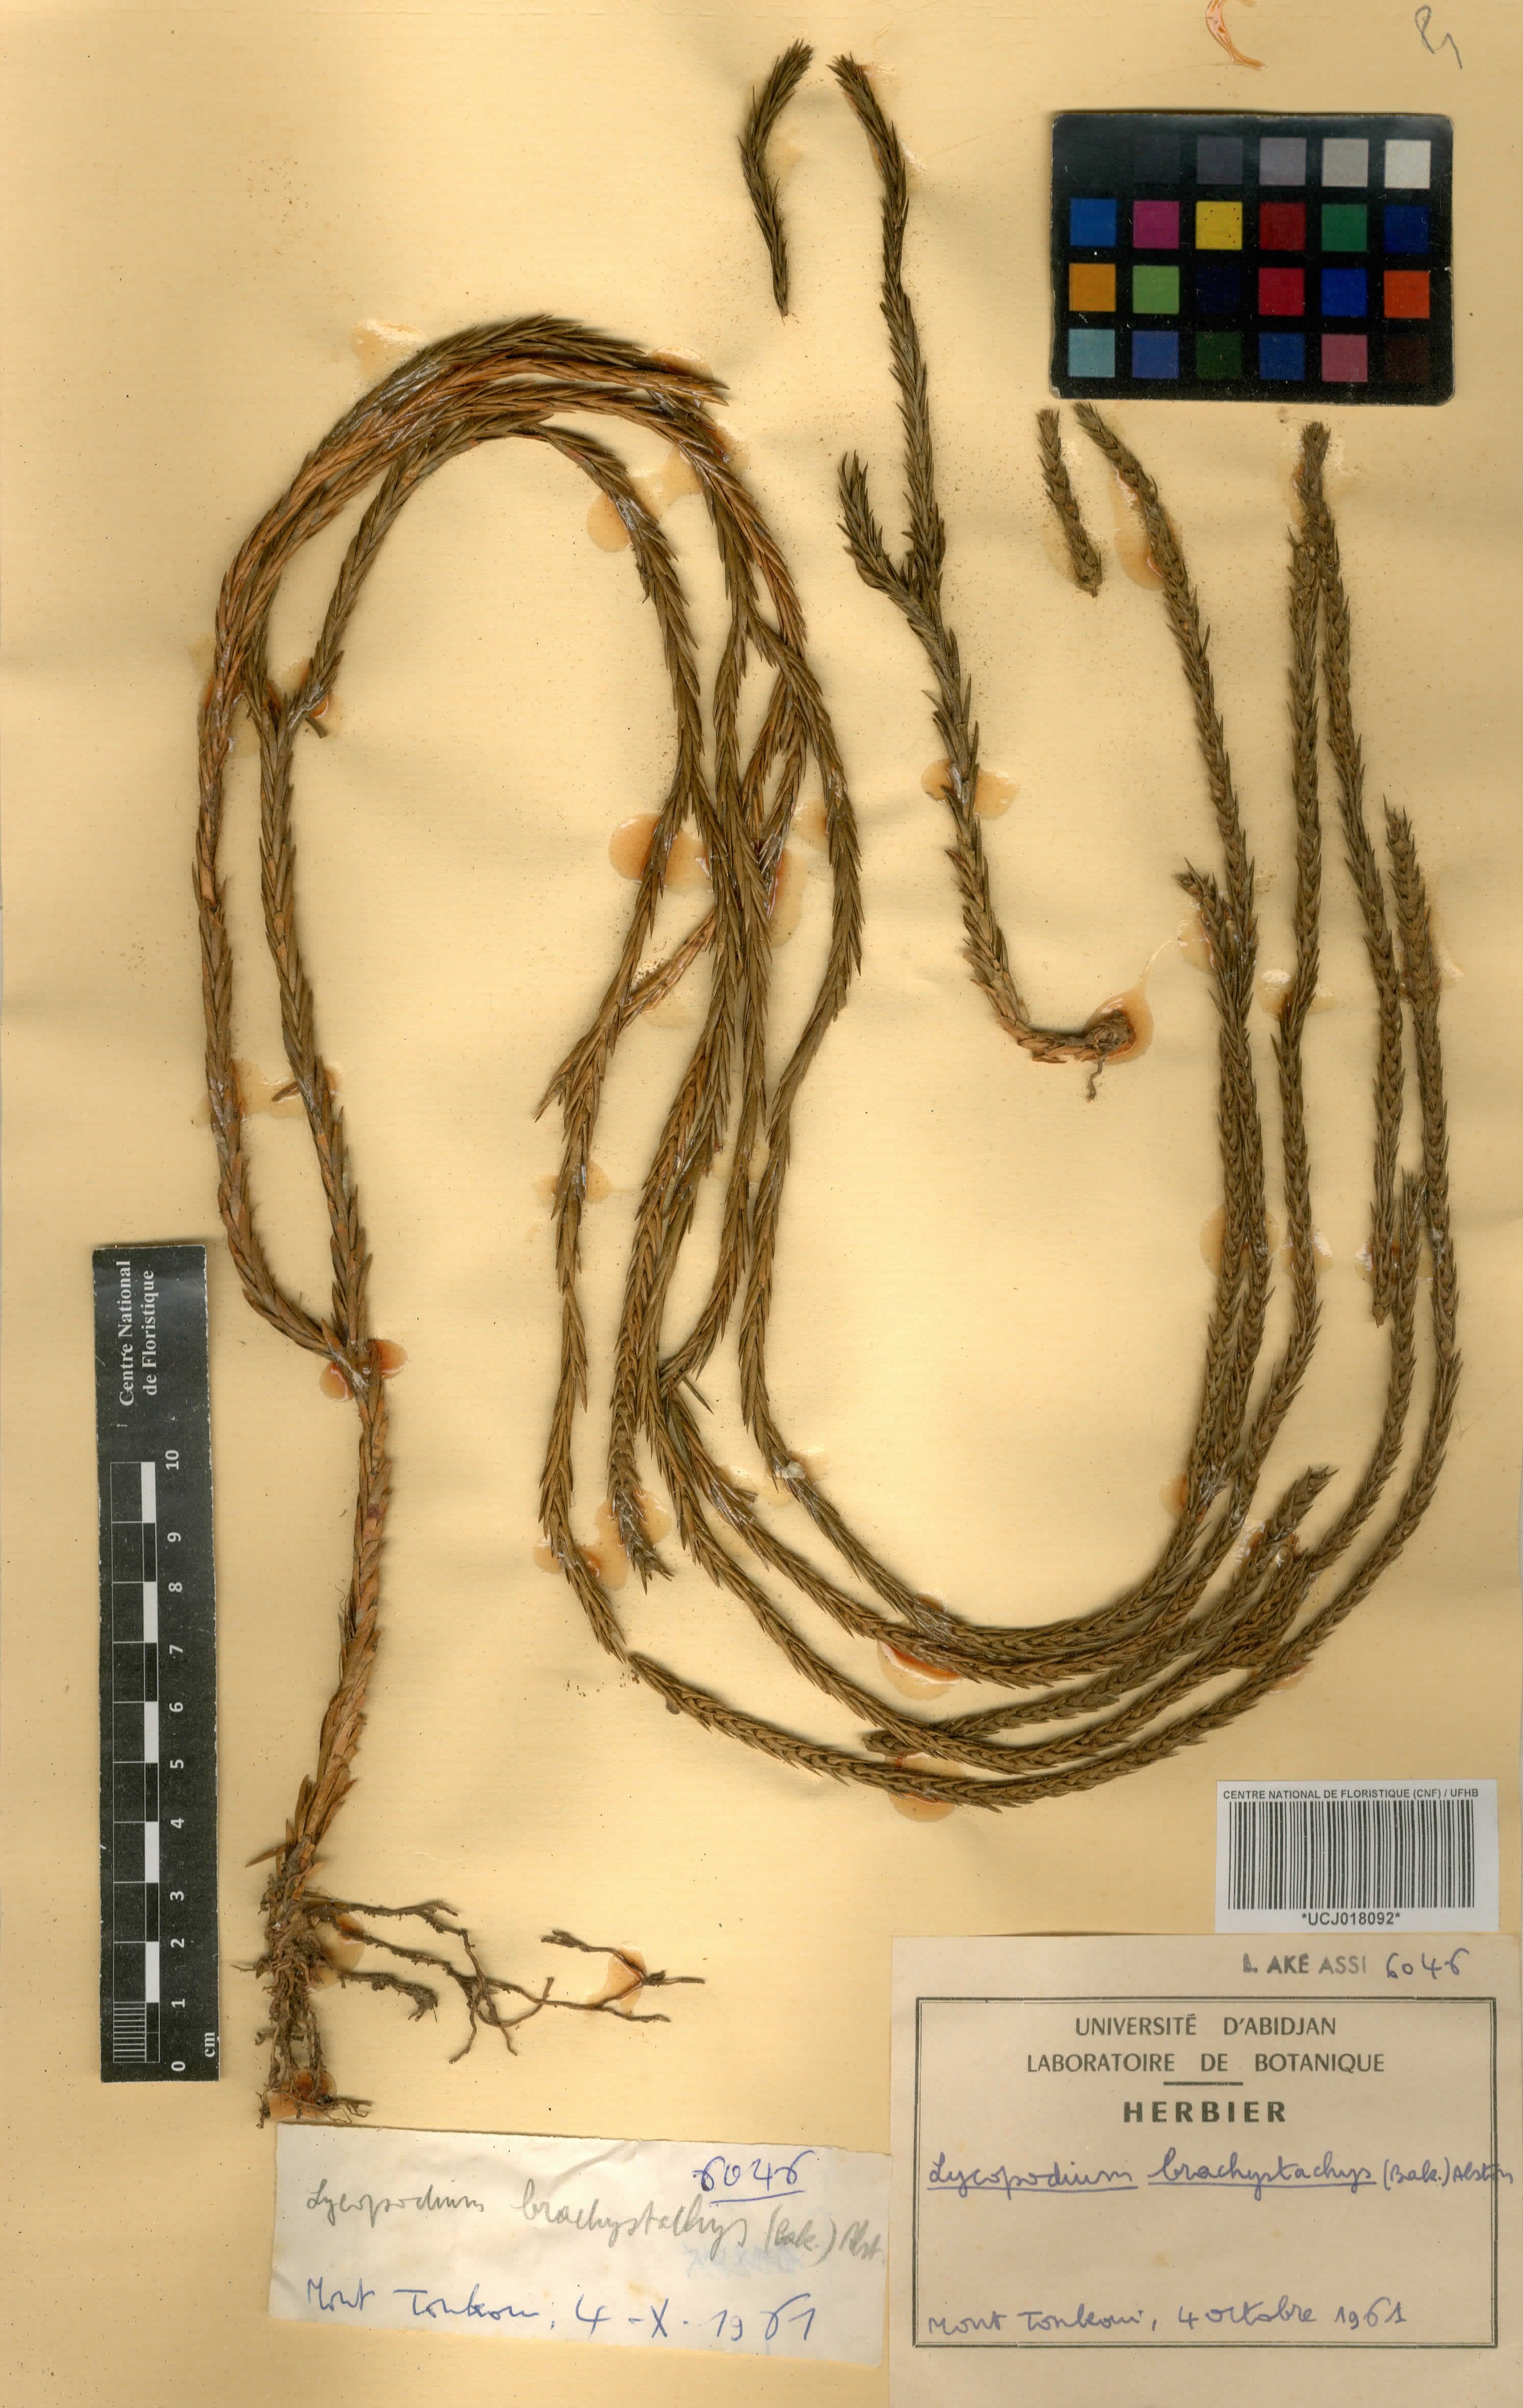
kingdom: Plantae
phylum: Tracheophyta
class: Lycopodiopsida
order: Lycopodiales
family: Lycopodiaceae
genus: Phlegmariurus
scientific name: Phlegmariurus brachystachys
